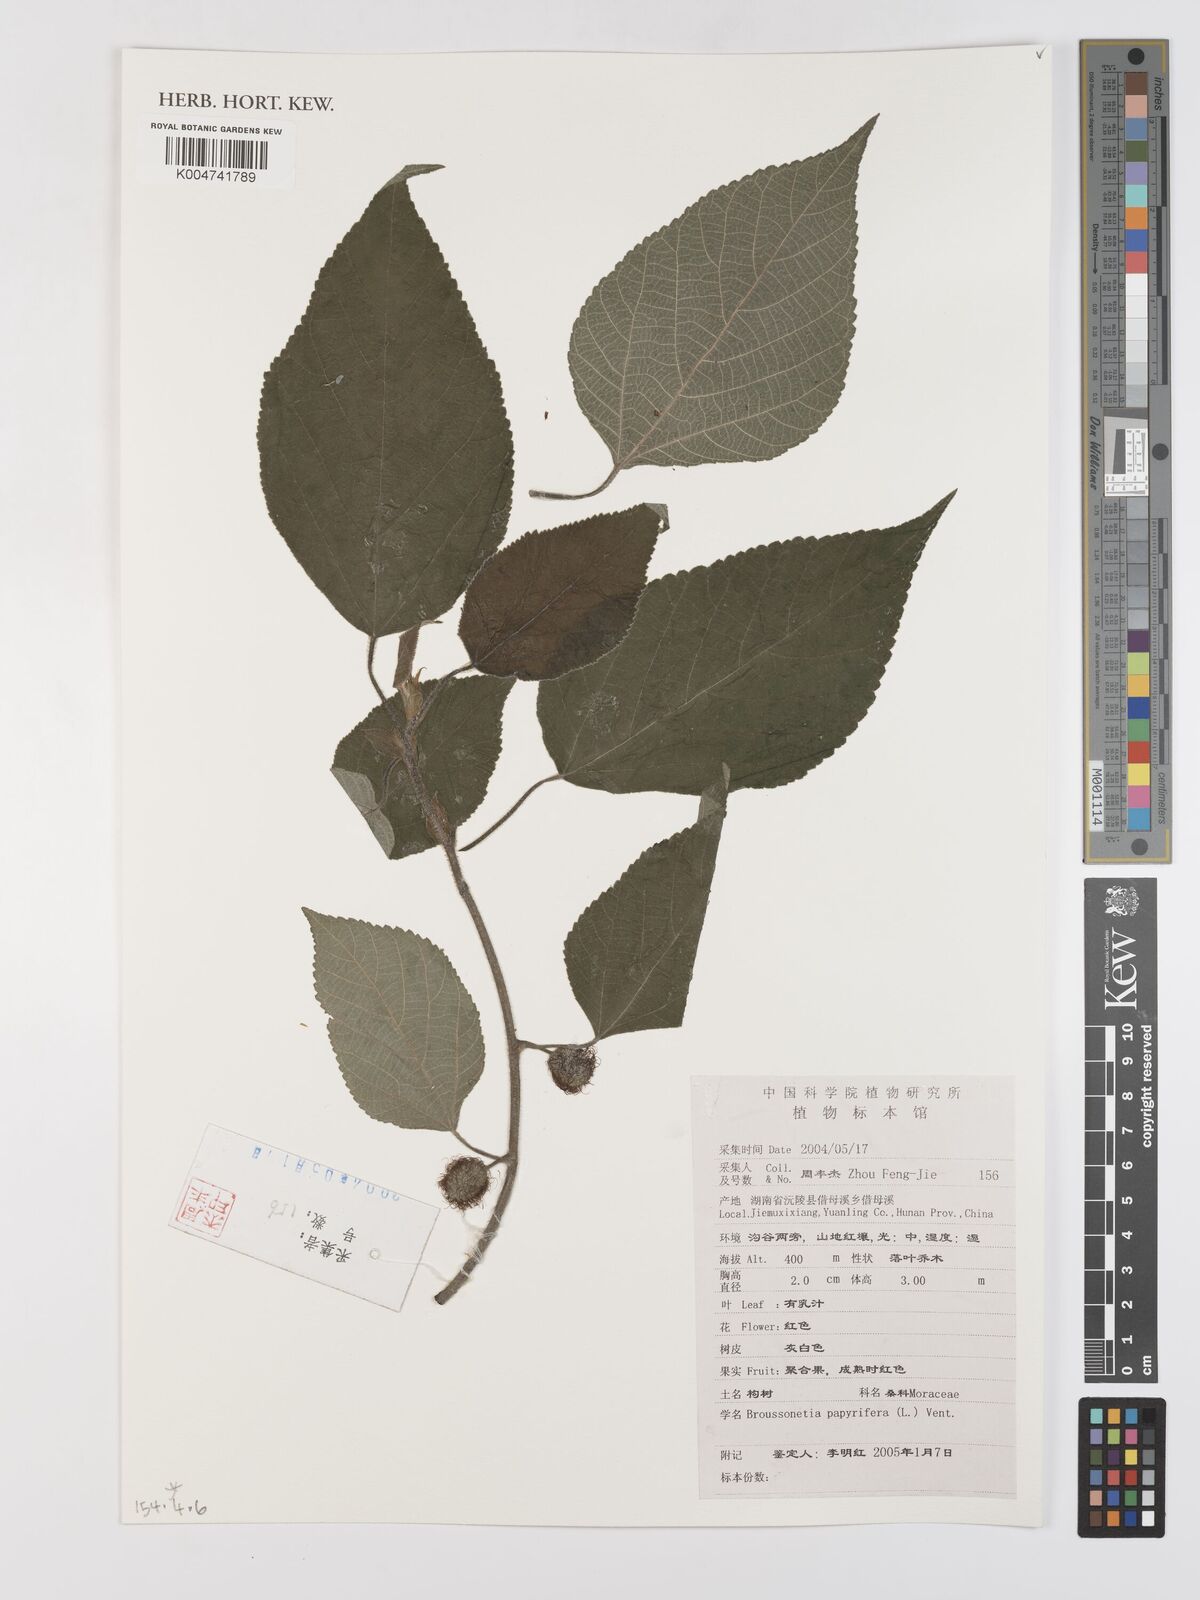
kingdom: Plantae
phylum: Tracheophyta
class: Magnoliopsida
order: Rosales
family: Moraceae
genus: Broussonetia
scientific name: Broussonetia papyrifera
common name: Paper mulberry
